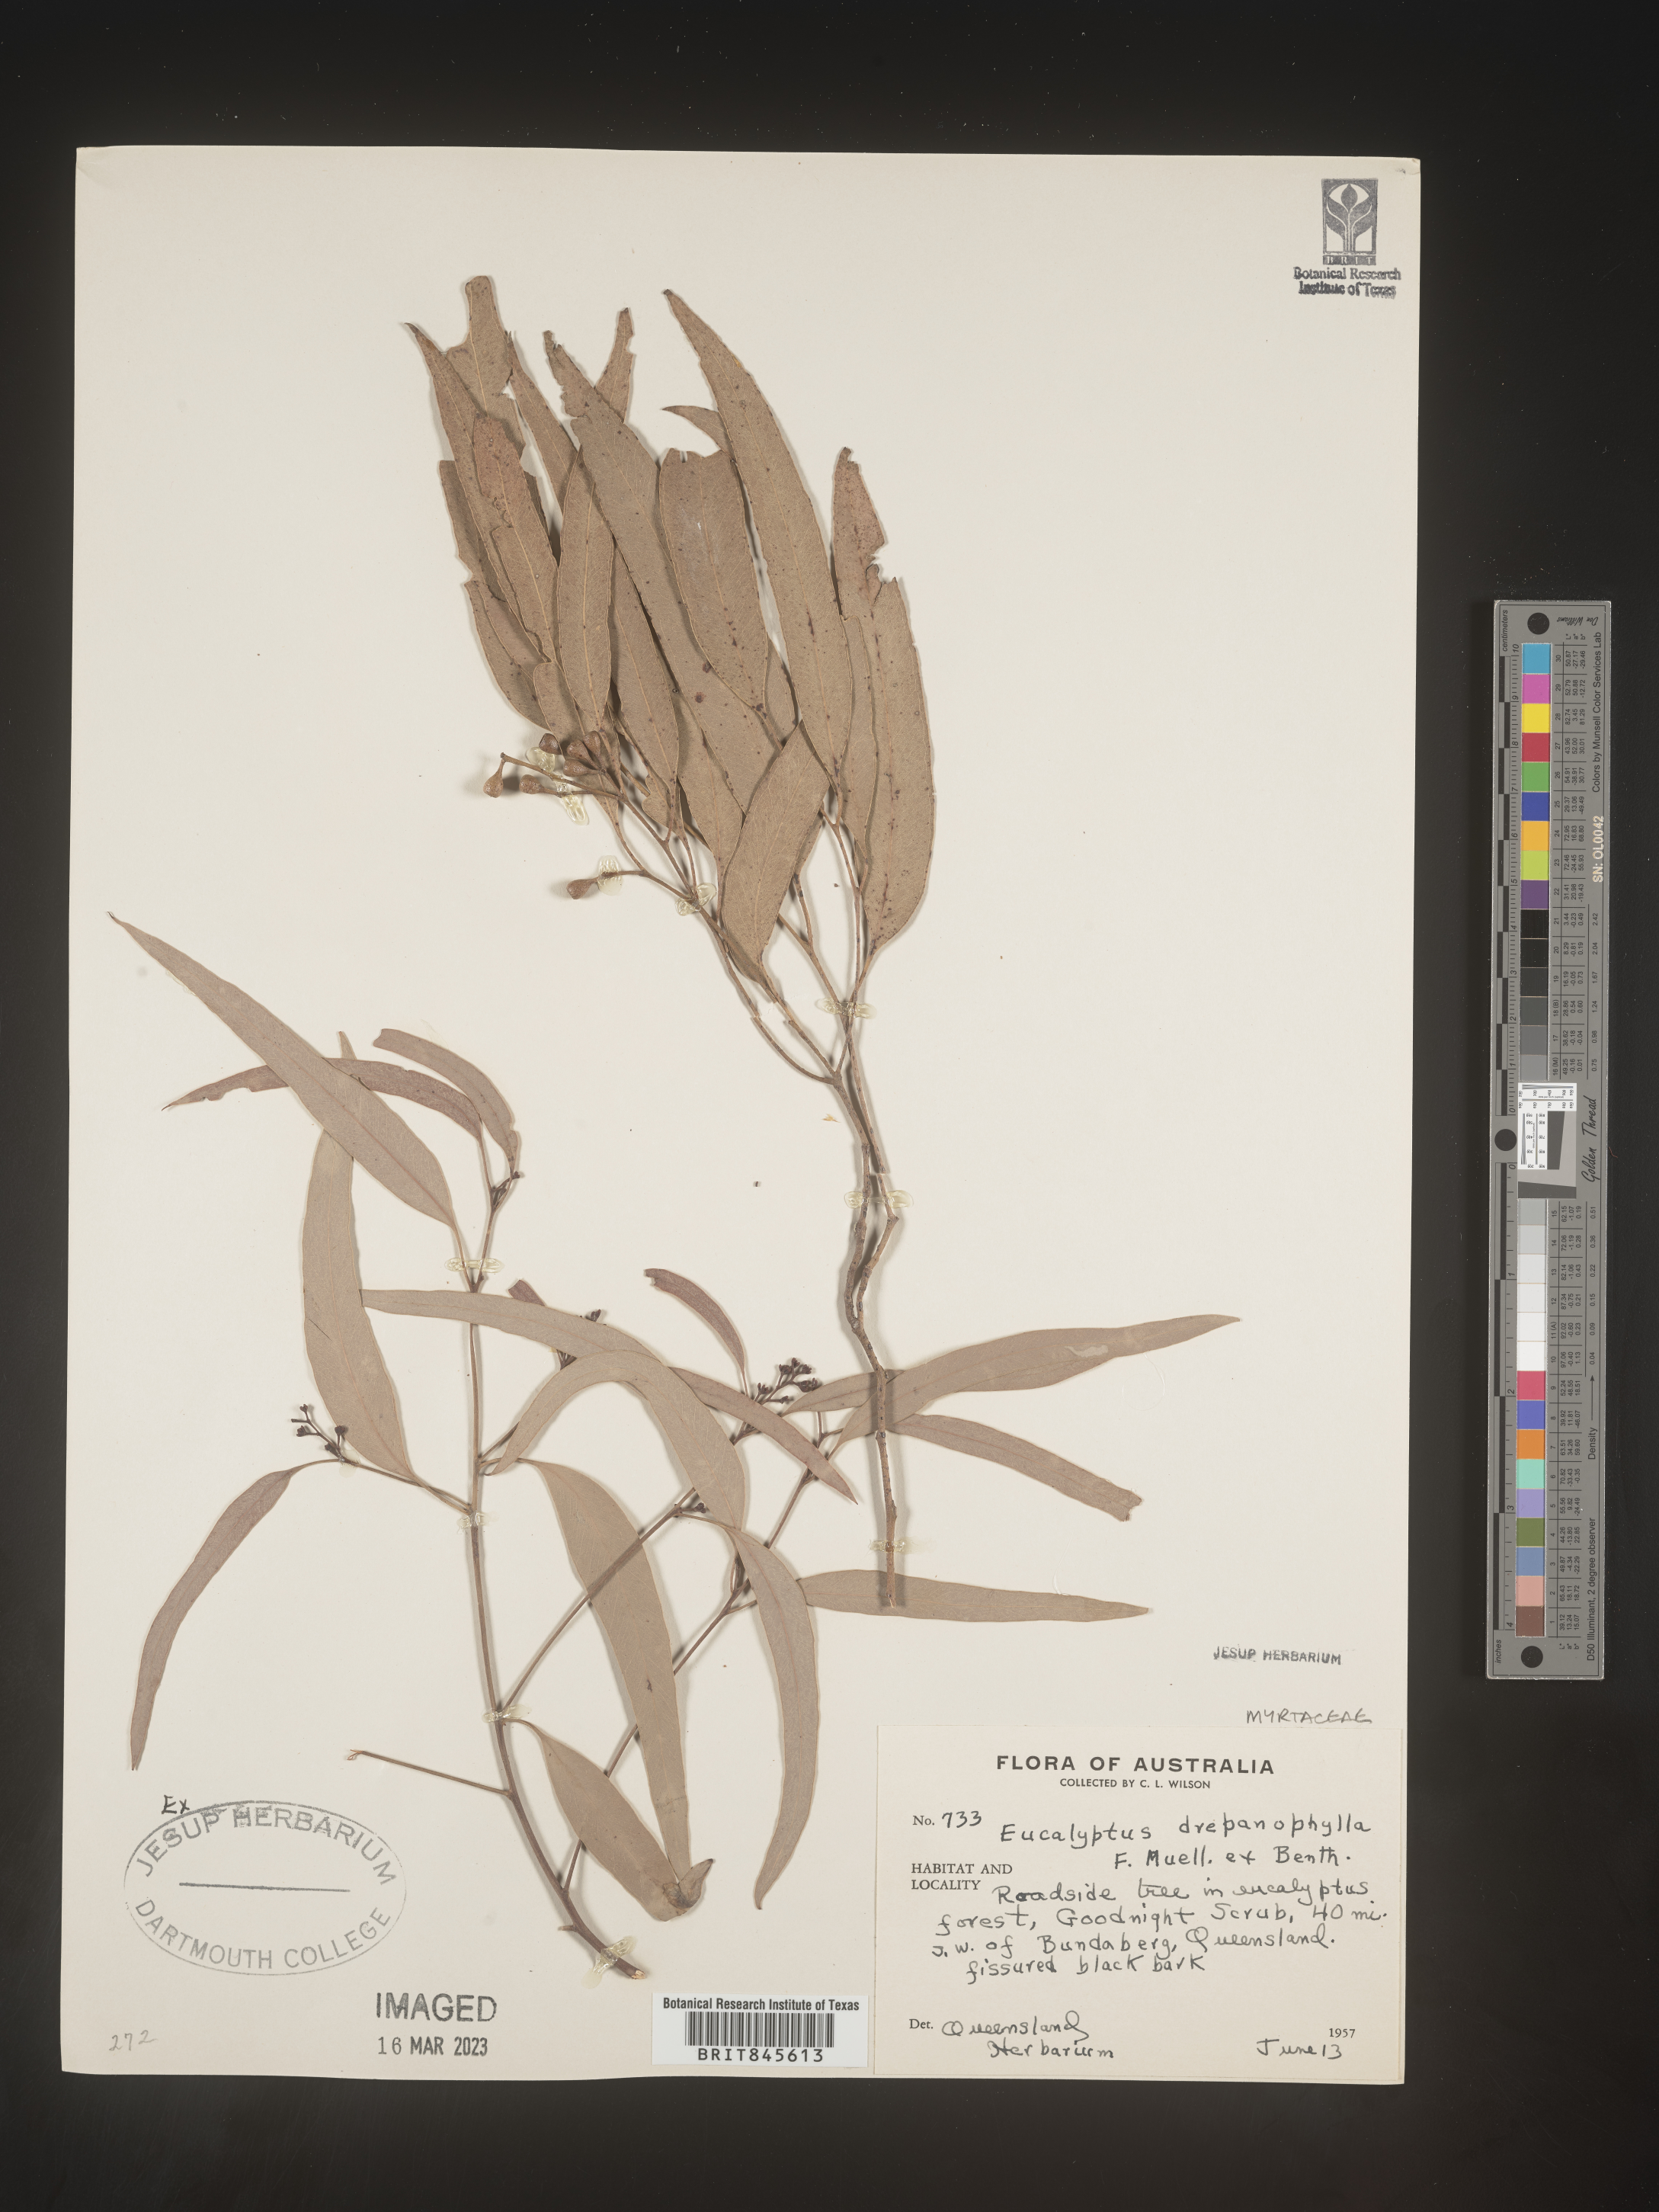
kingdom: Plantae
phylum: Tracheophyta
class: Magnoliopsida
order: Myrtales
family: Myrtaceae
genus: Eucalyptus
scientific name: Eucalyptus
